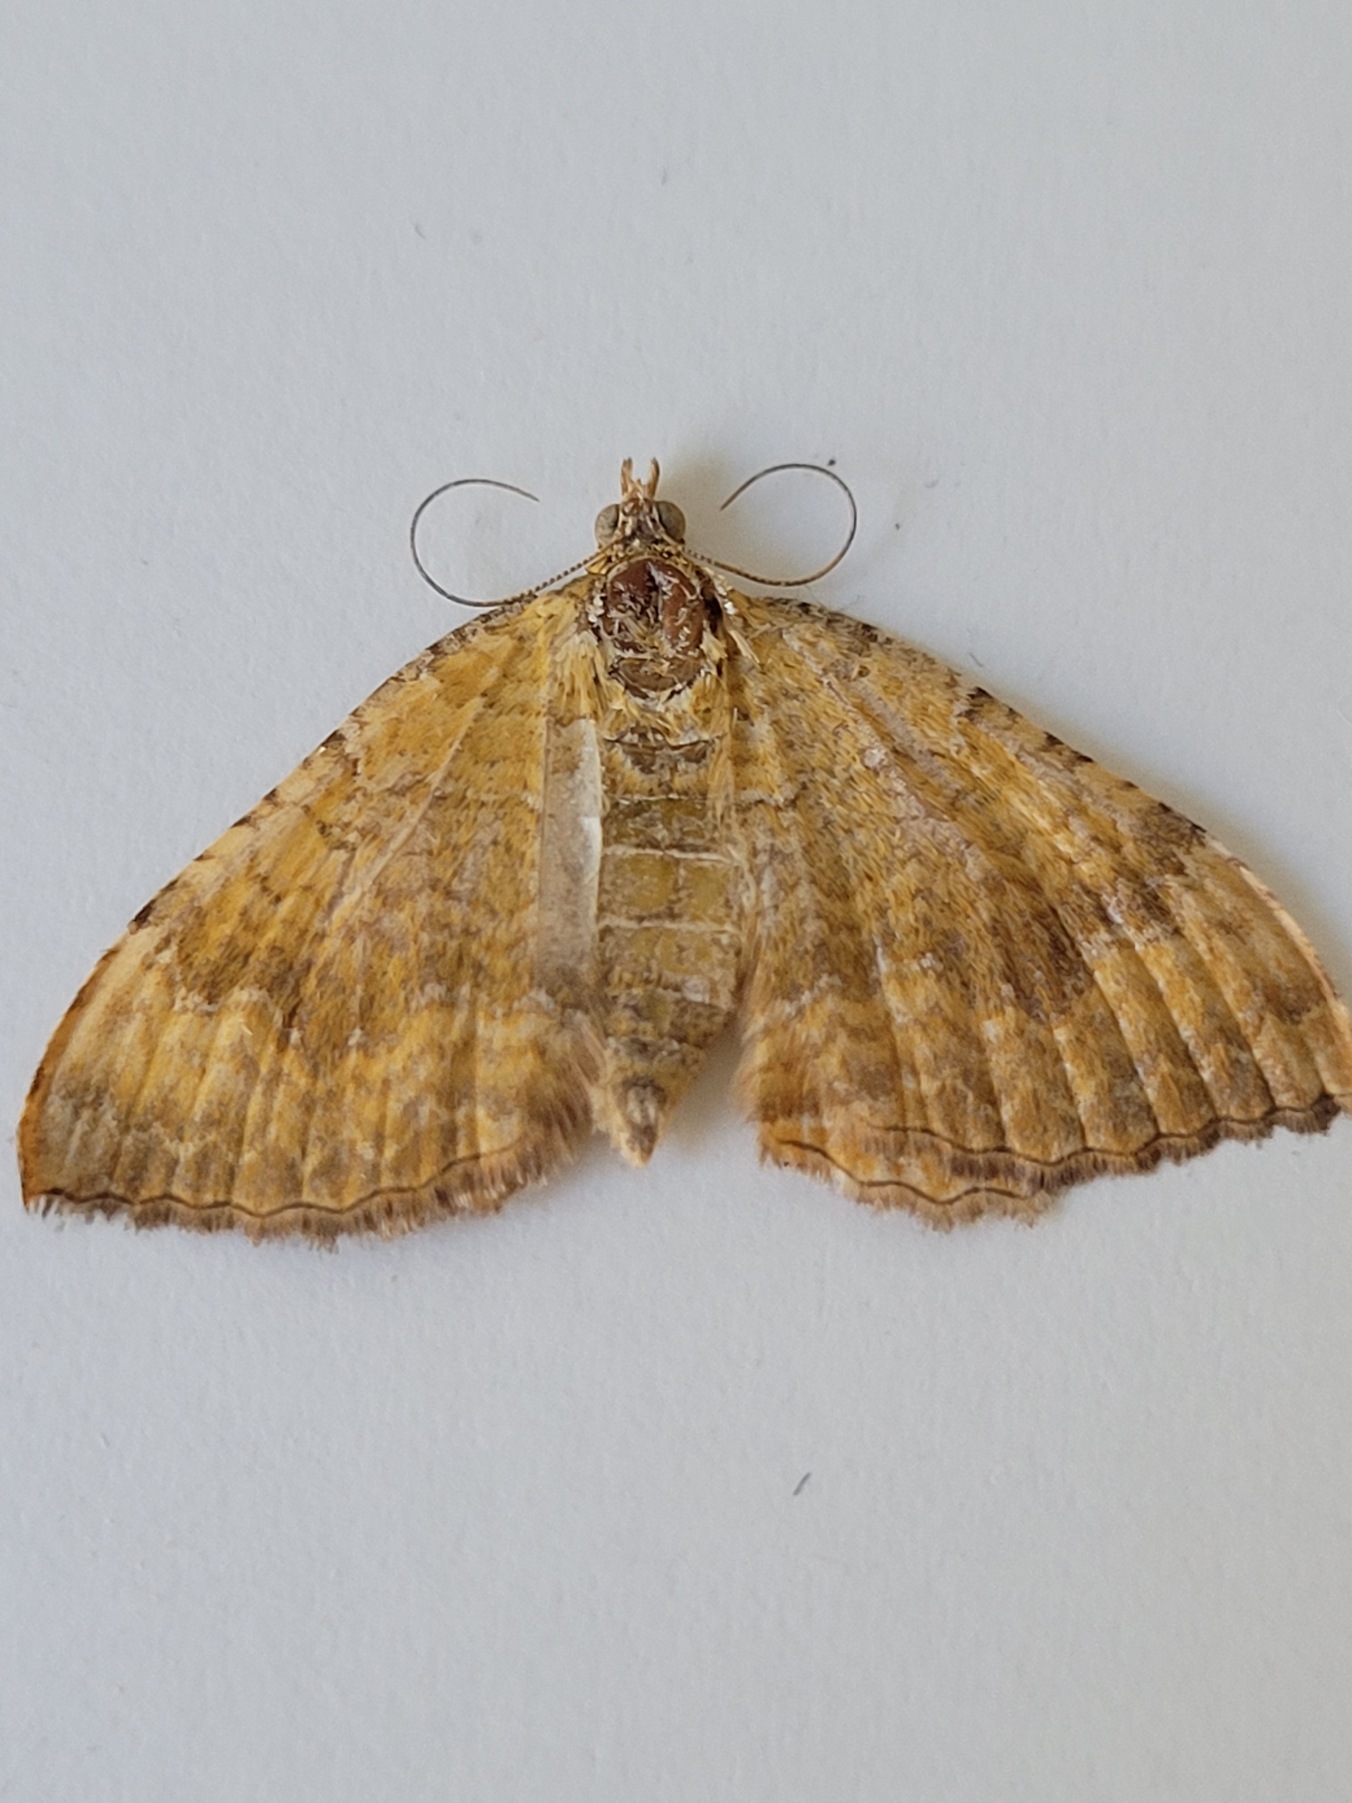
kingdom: Animalia
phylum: Arthropoda
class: Insecta
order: Lepidoptera
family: Geometridae
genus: Camptogramma
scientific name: Camptogramma bilineata
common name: Okkergul bladmåler
